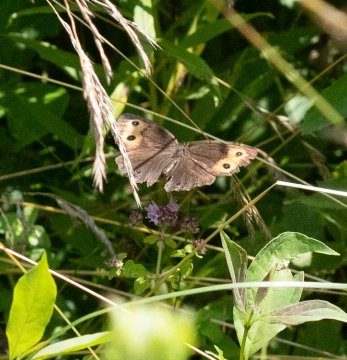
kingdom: Animalia
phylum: Arthropoda
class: Insecta
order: Lepidoptera
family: Nymphalidae
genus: Cercyonis
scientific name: Cercyonis pegala
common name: Common Wood-Nymph
